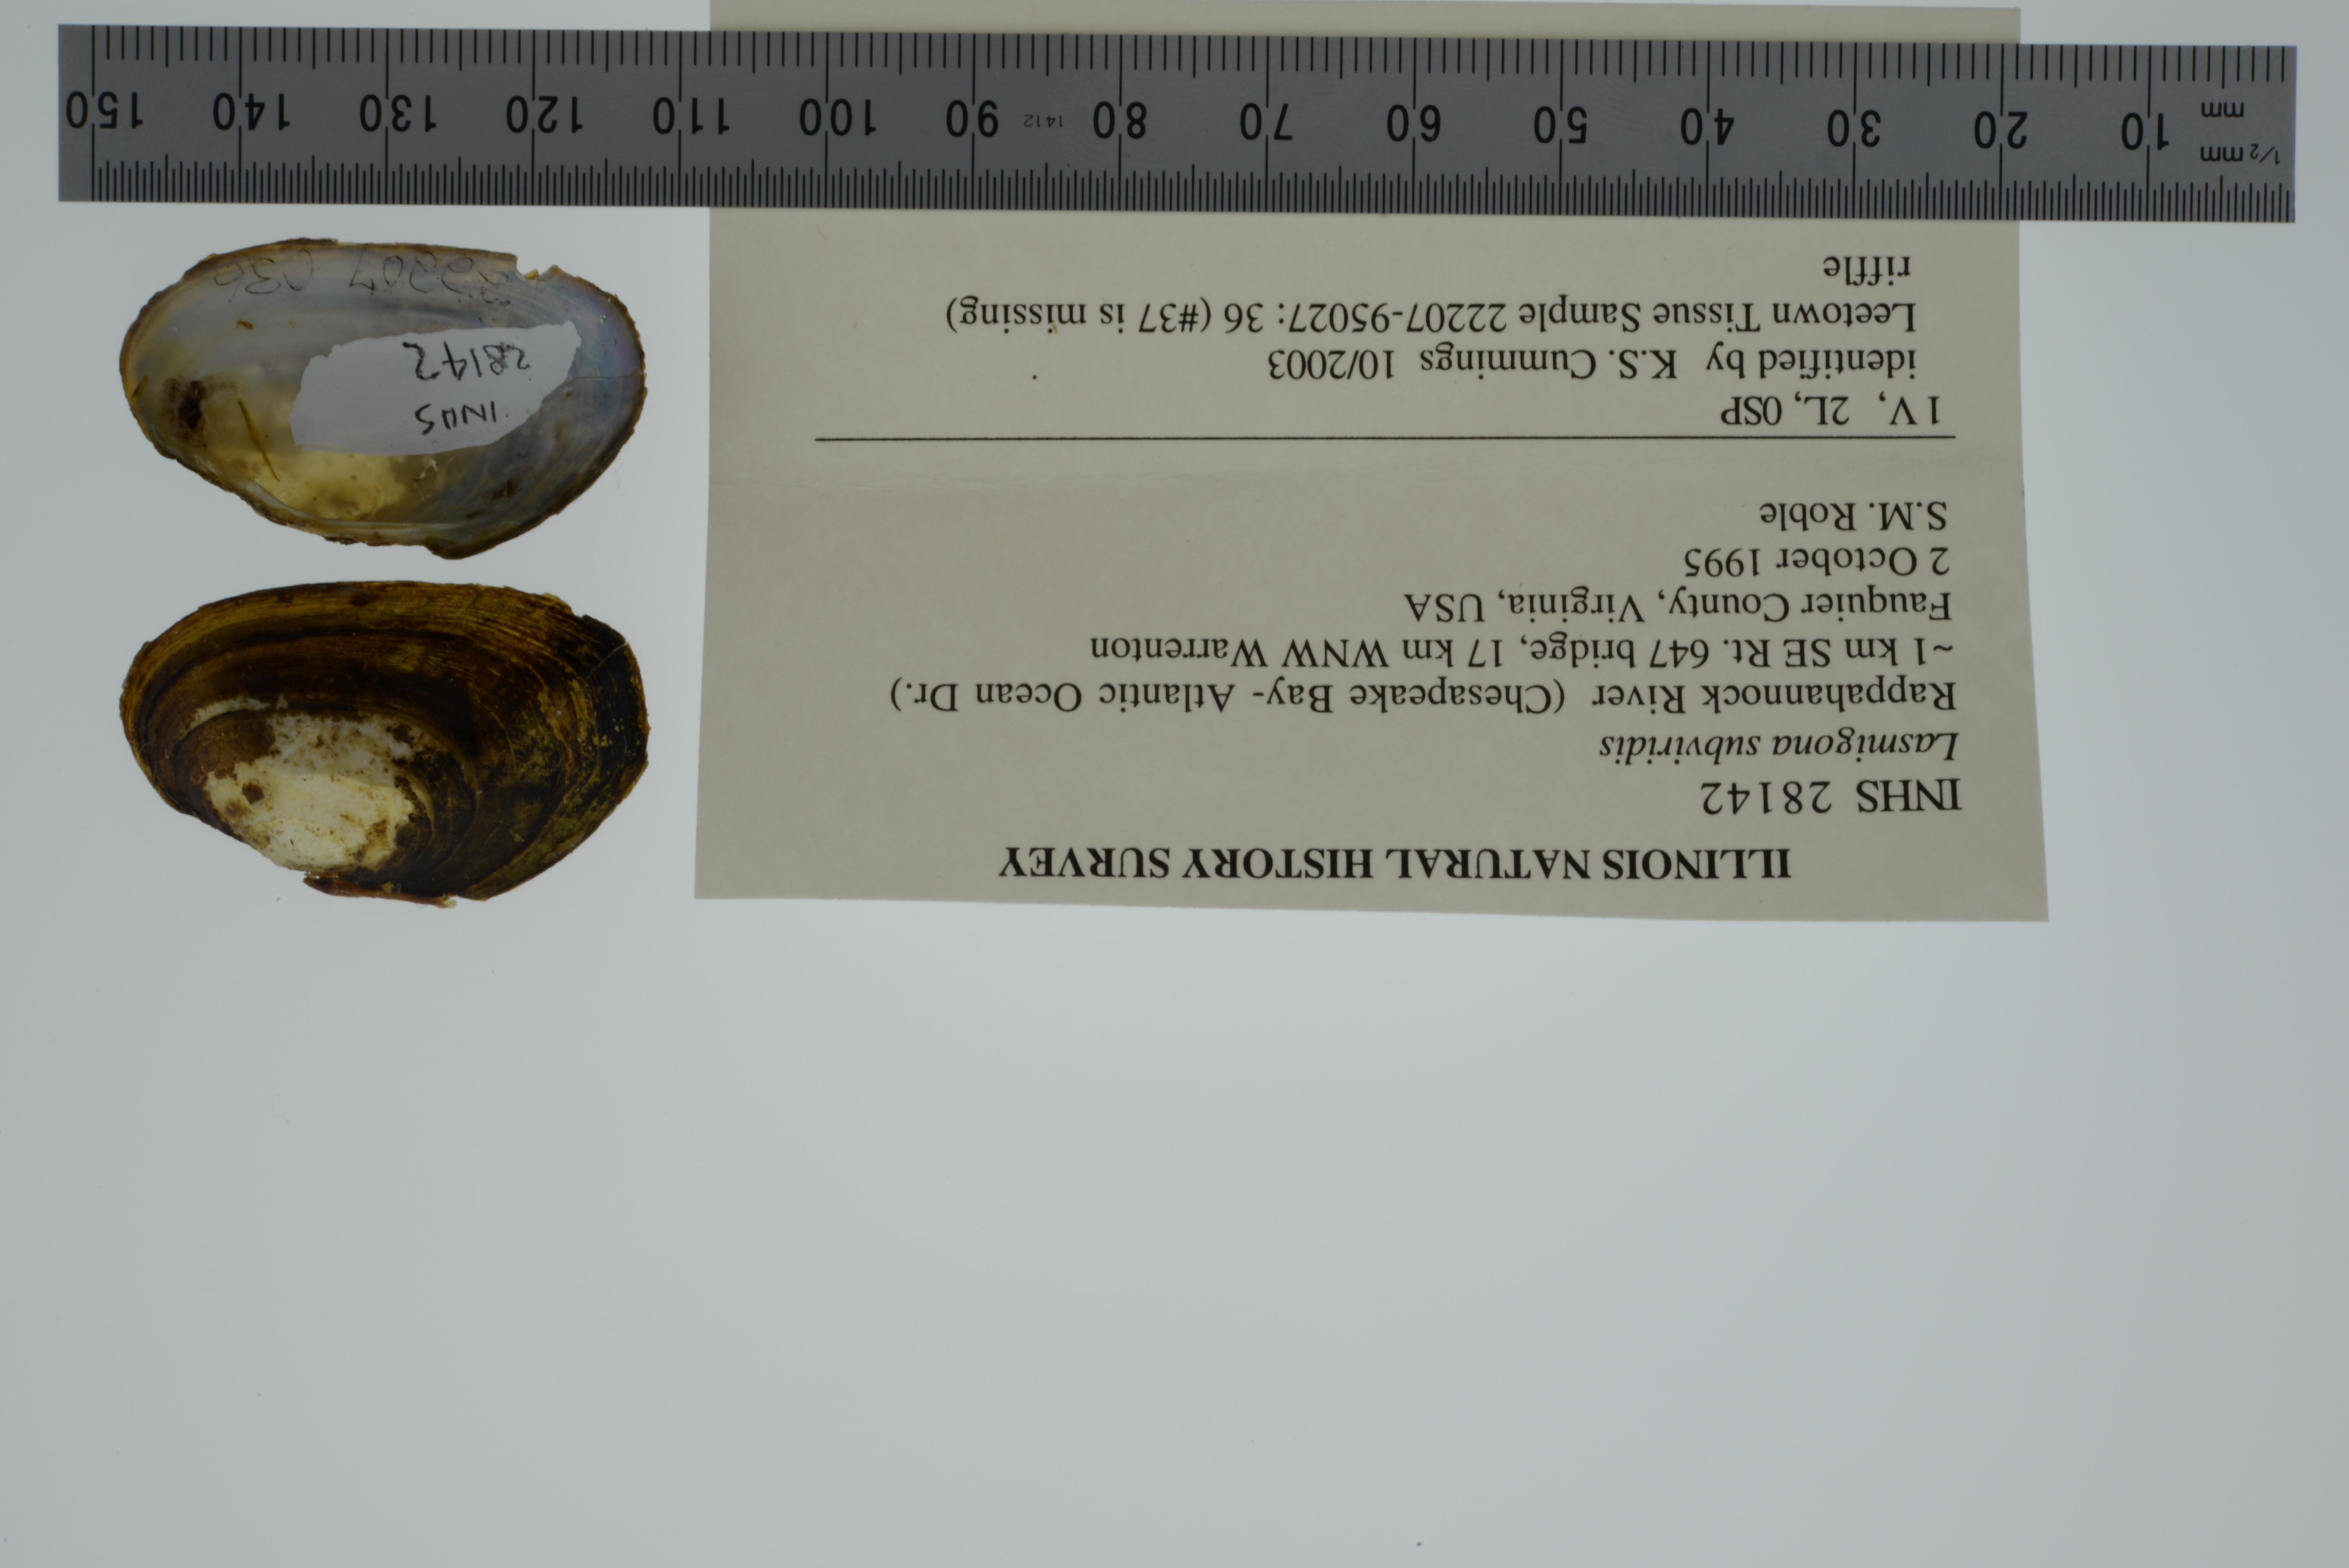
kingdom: Animalia
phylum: Mollusca
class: Bivalvia
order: Unionida
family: Unionidae
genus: Lasmigona
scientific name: Lasmigona subviridis
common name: Green floater
